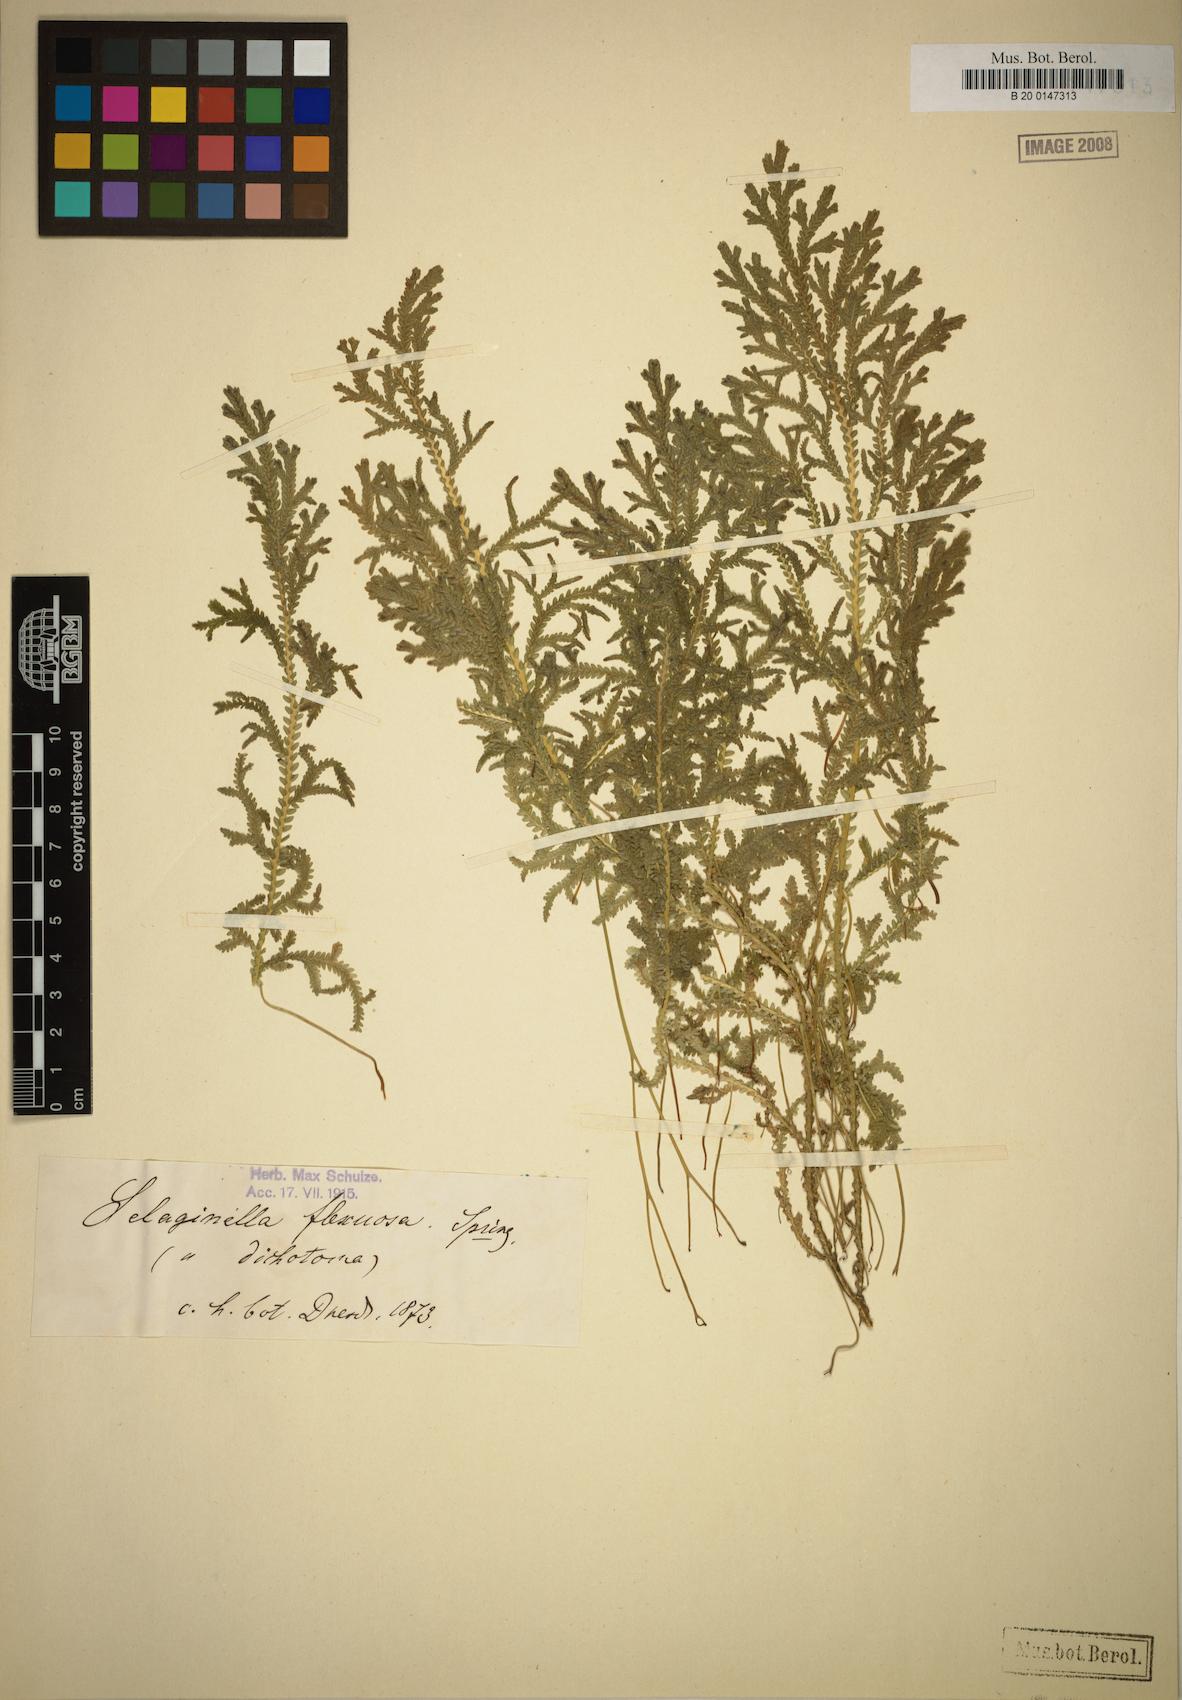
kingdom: Plantae
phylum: Tracheophyta
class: Lycopodiopsida
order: Selaginellales
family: Selaginellaceae
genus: Selaginella
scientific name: Selaginella flexuosa
